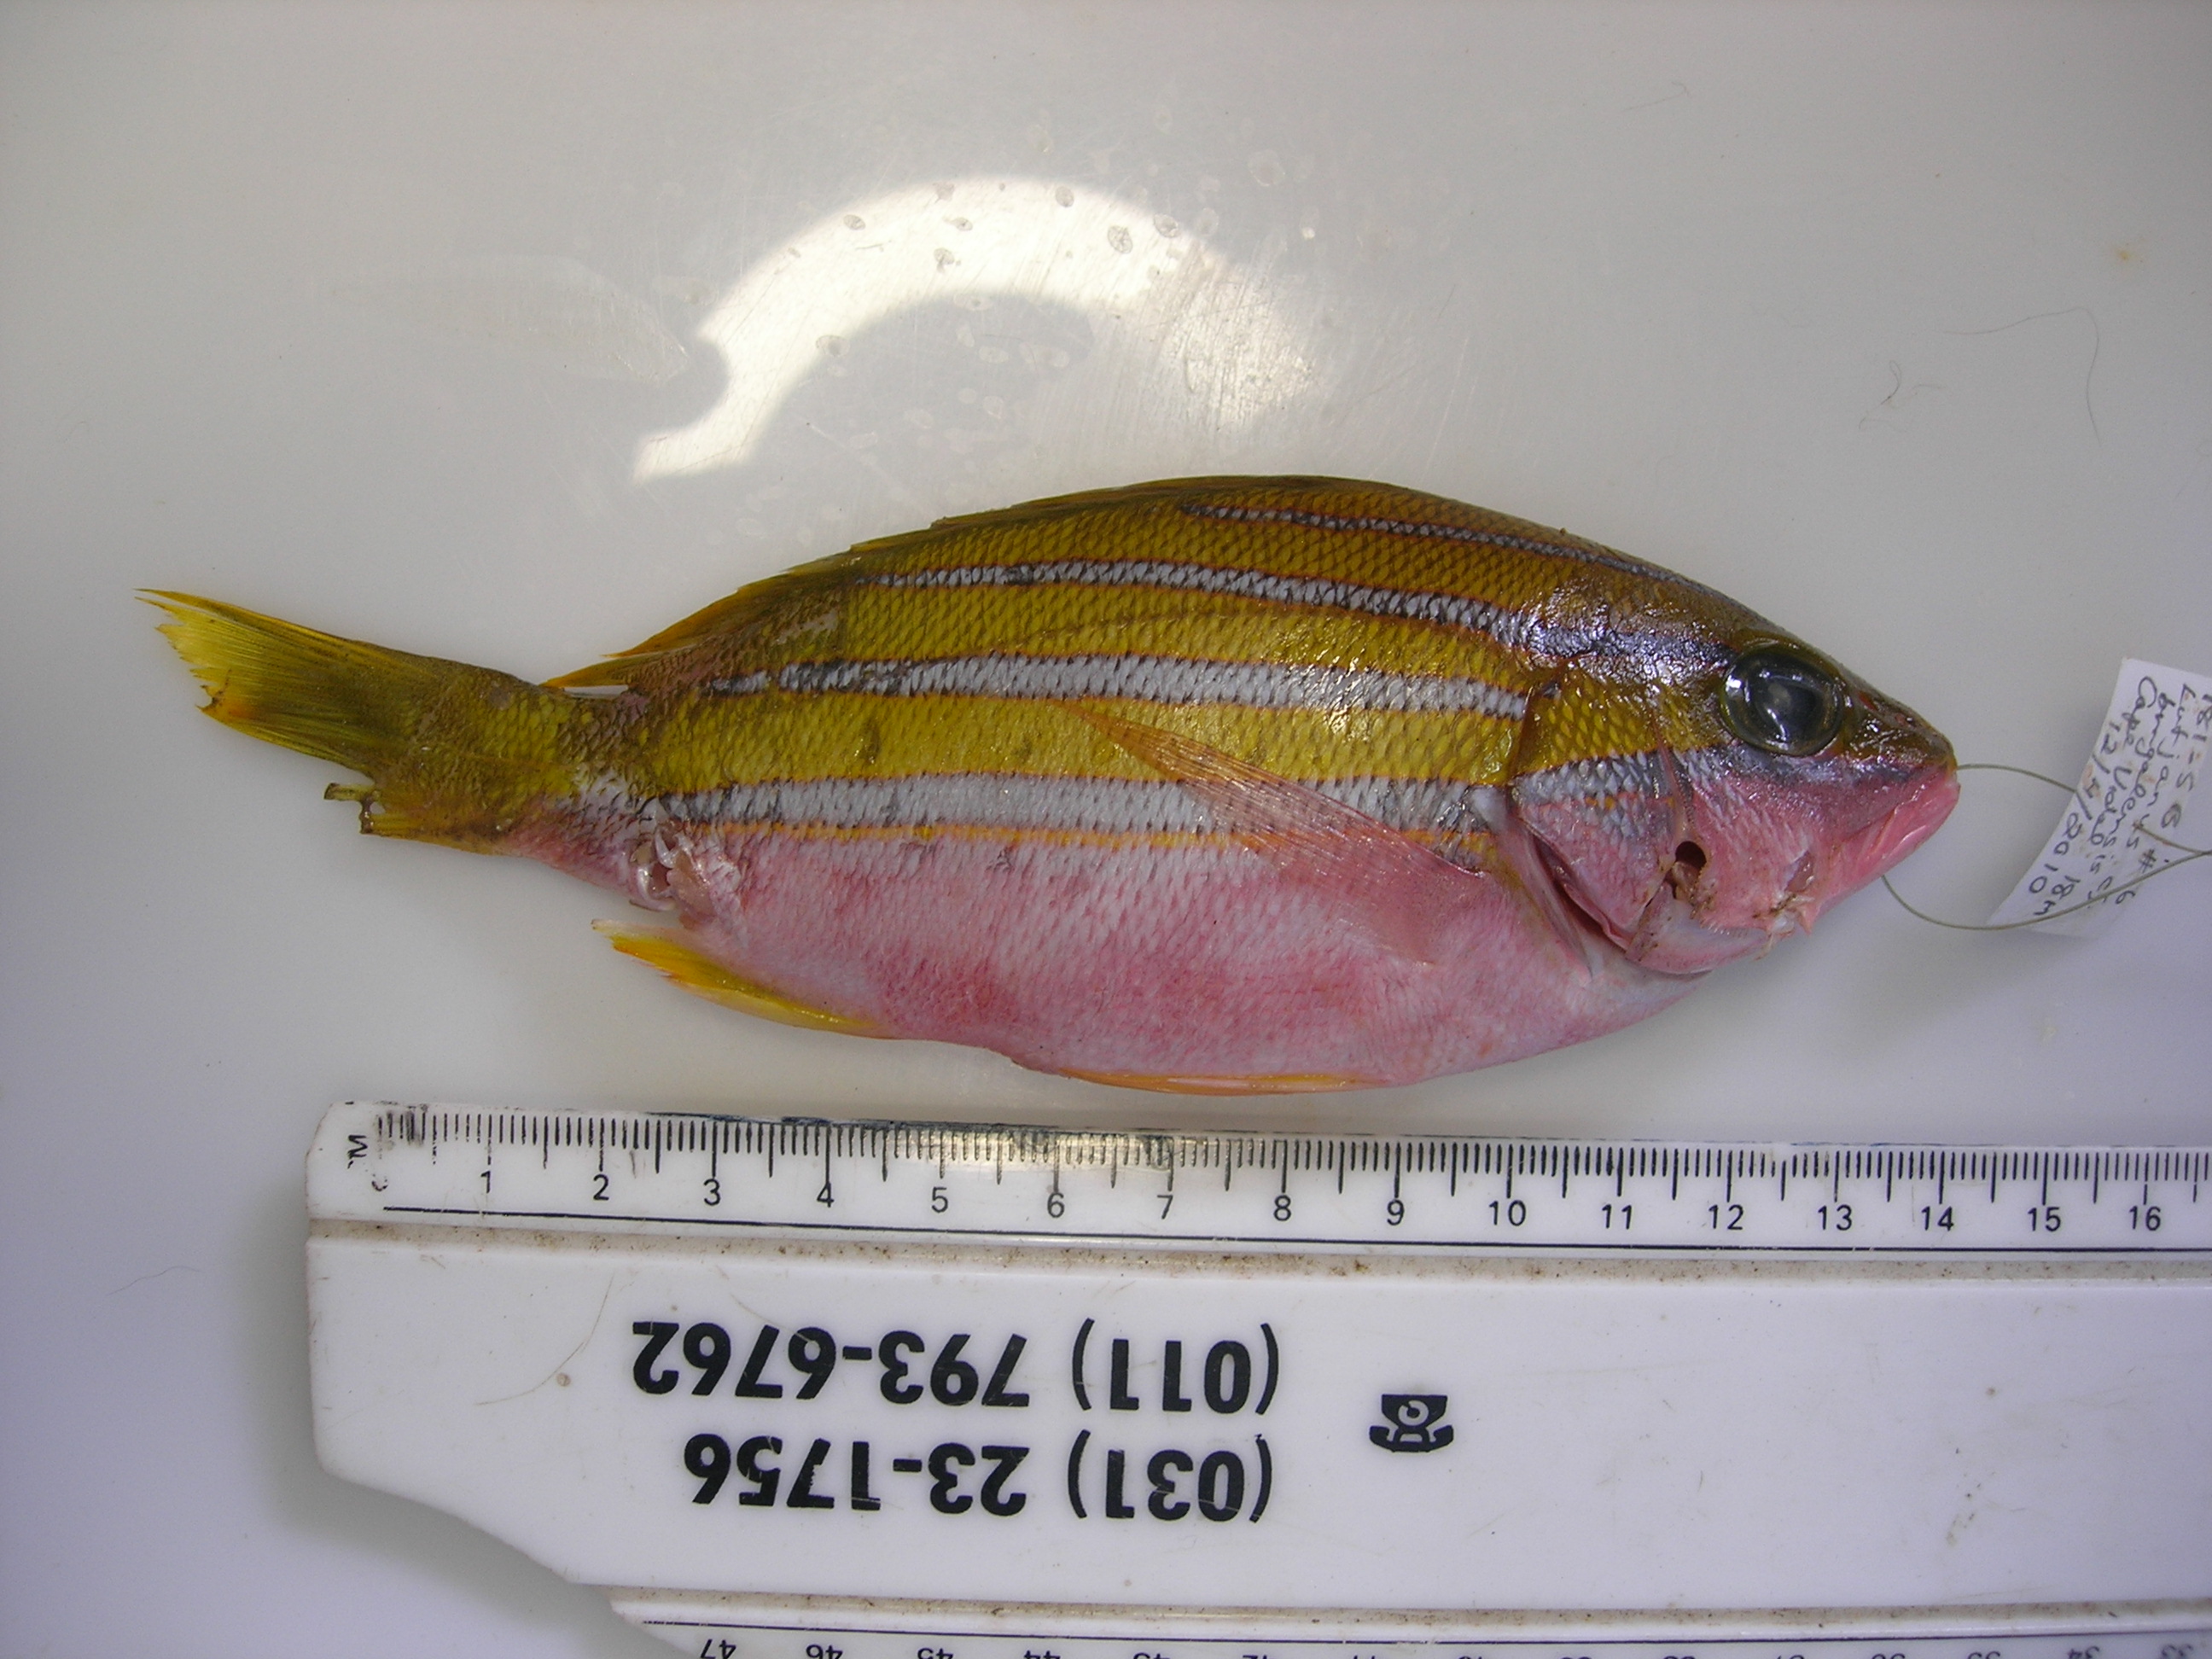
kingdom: Animalia
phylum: Chordata
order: Perciformes
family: Lutjanidae
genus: Lutjanus
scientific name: Lutjanus bengalensis
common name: Bengal snapper
